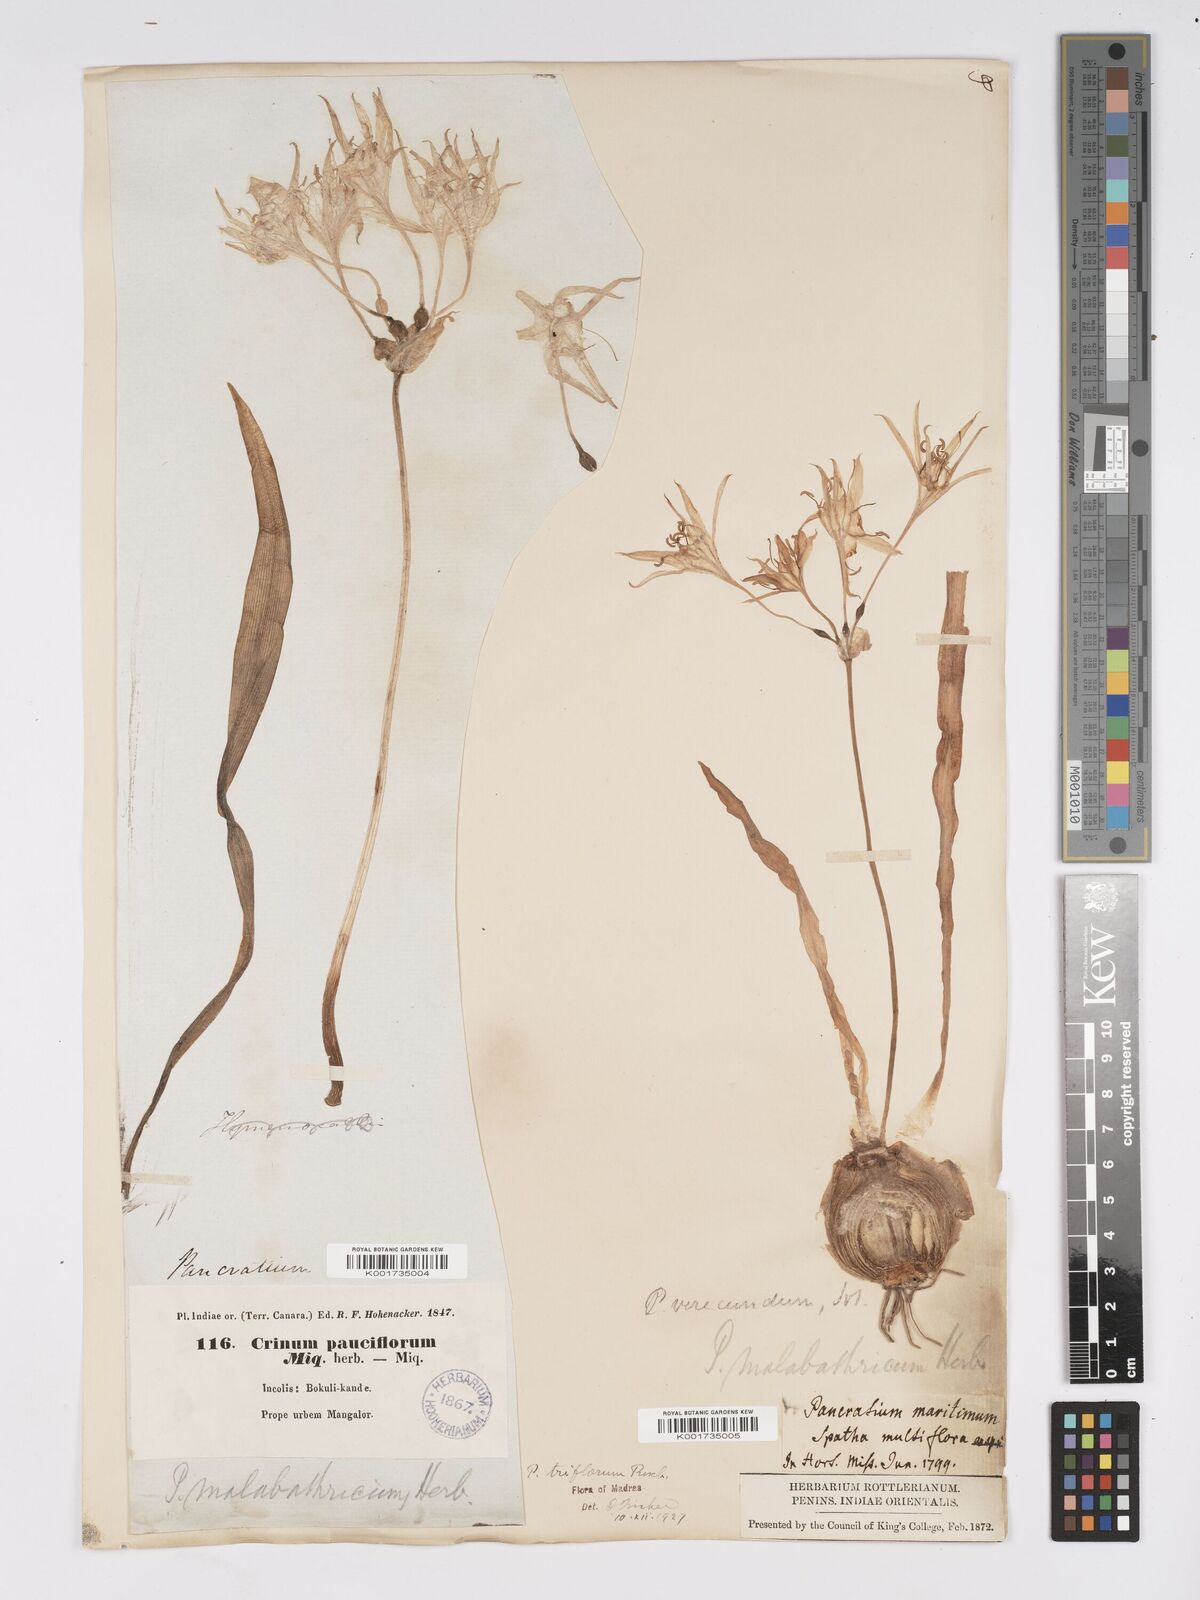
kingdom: Plantae
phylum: Tracheophyta
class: Liliopsida
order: Asparagales
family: Amaryllidaceae
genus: Pancratium
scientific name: Pancratium triflorum
